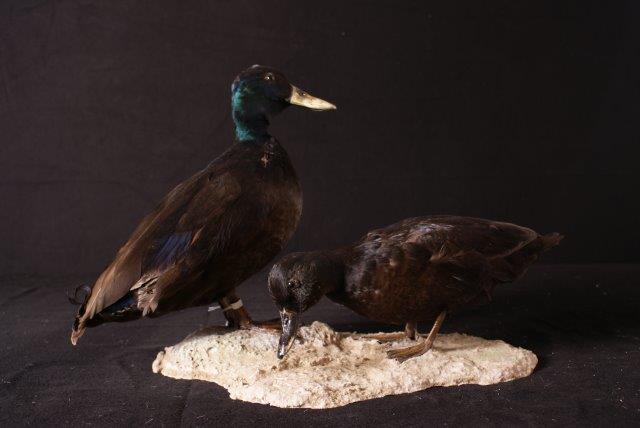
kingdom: Animalia
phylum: Chordata
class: Aves
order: Anseriformes
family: Anatidae
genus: Anas
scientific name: Anas platyrhynchos
